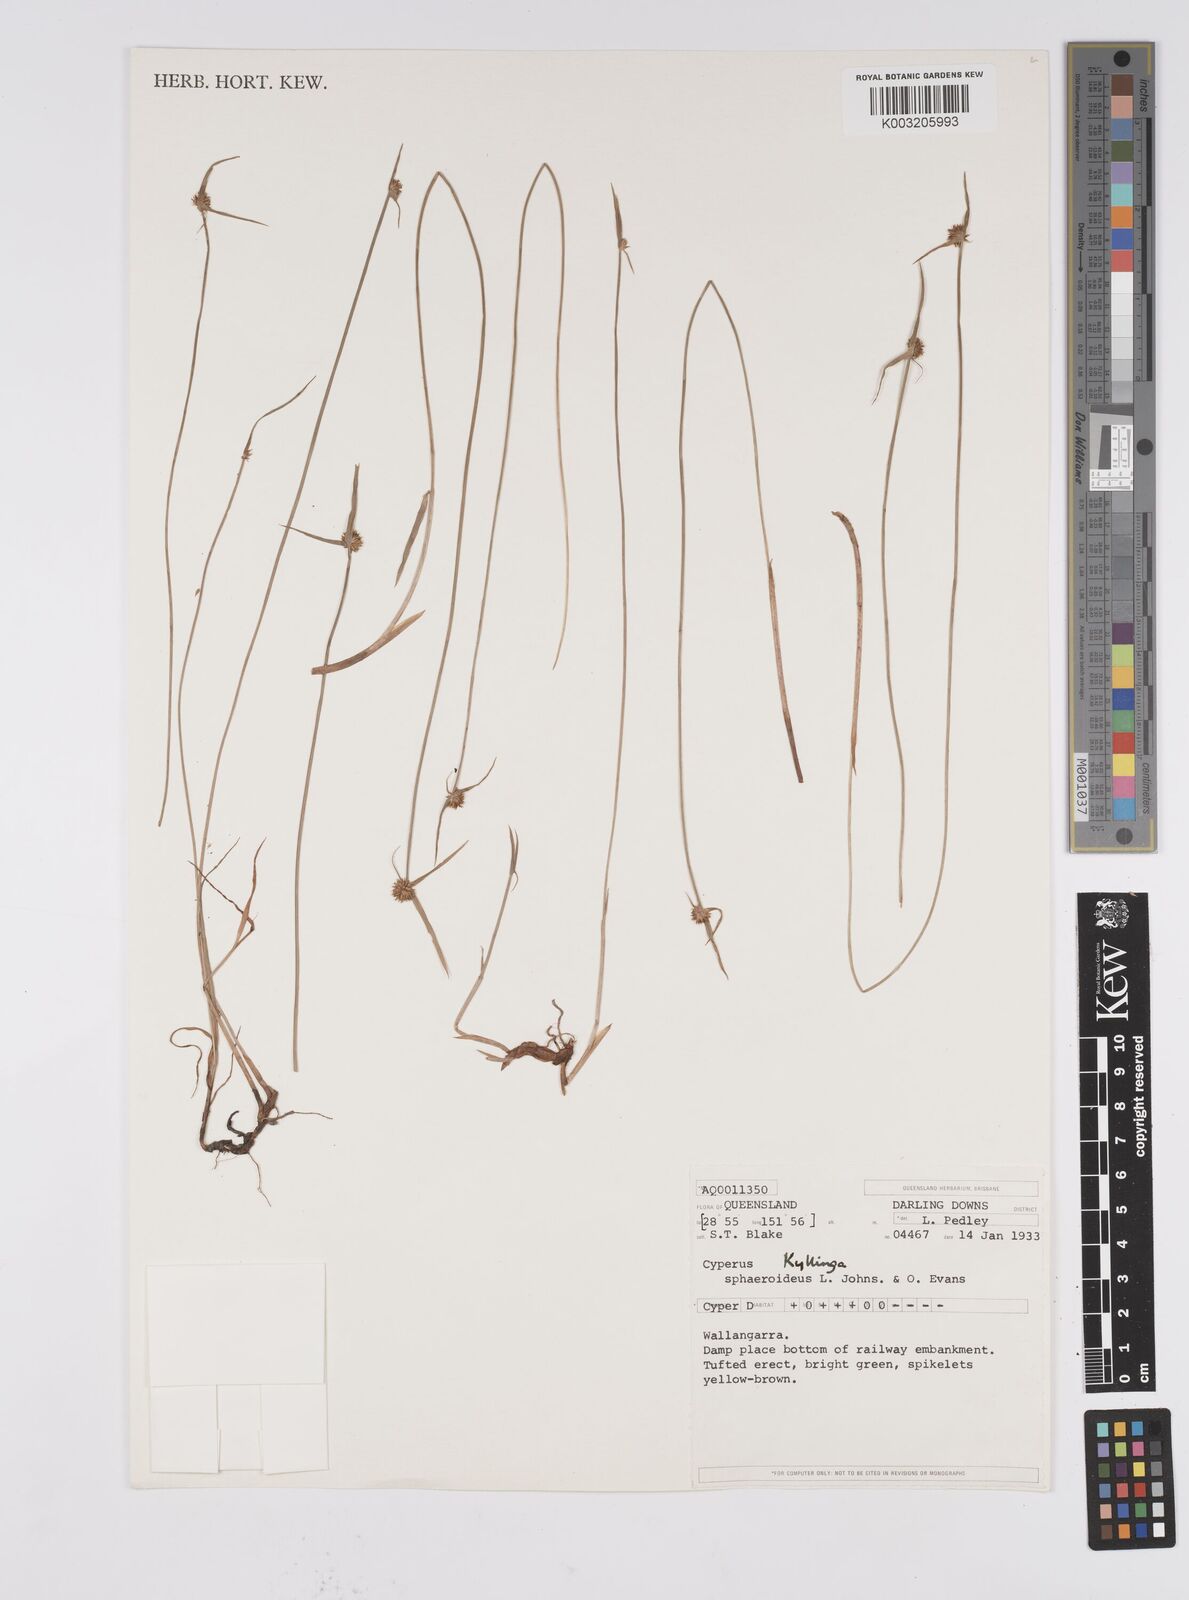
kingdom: Plantae
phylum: Tracheophyta
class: Liliopsida
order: Poales
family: Cyperaceae
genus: Cyperus
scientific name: Cyperus brevifolius
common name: Globe kyllinga
